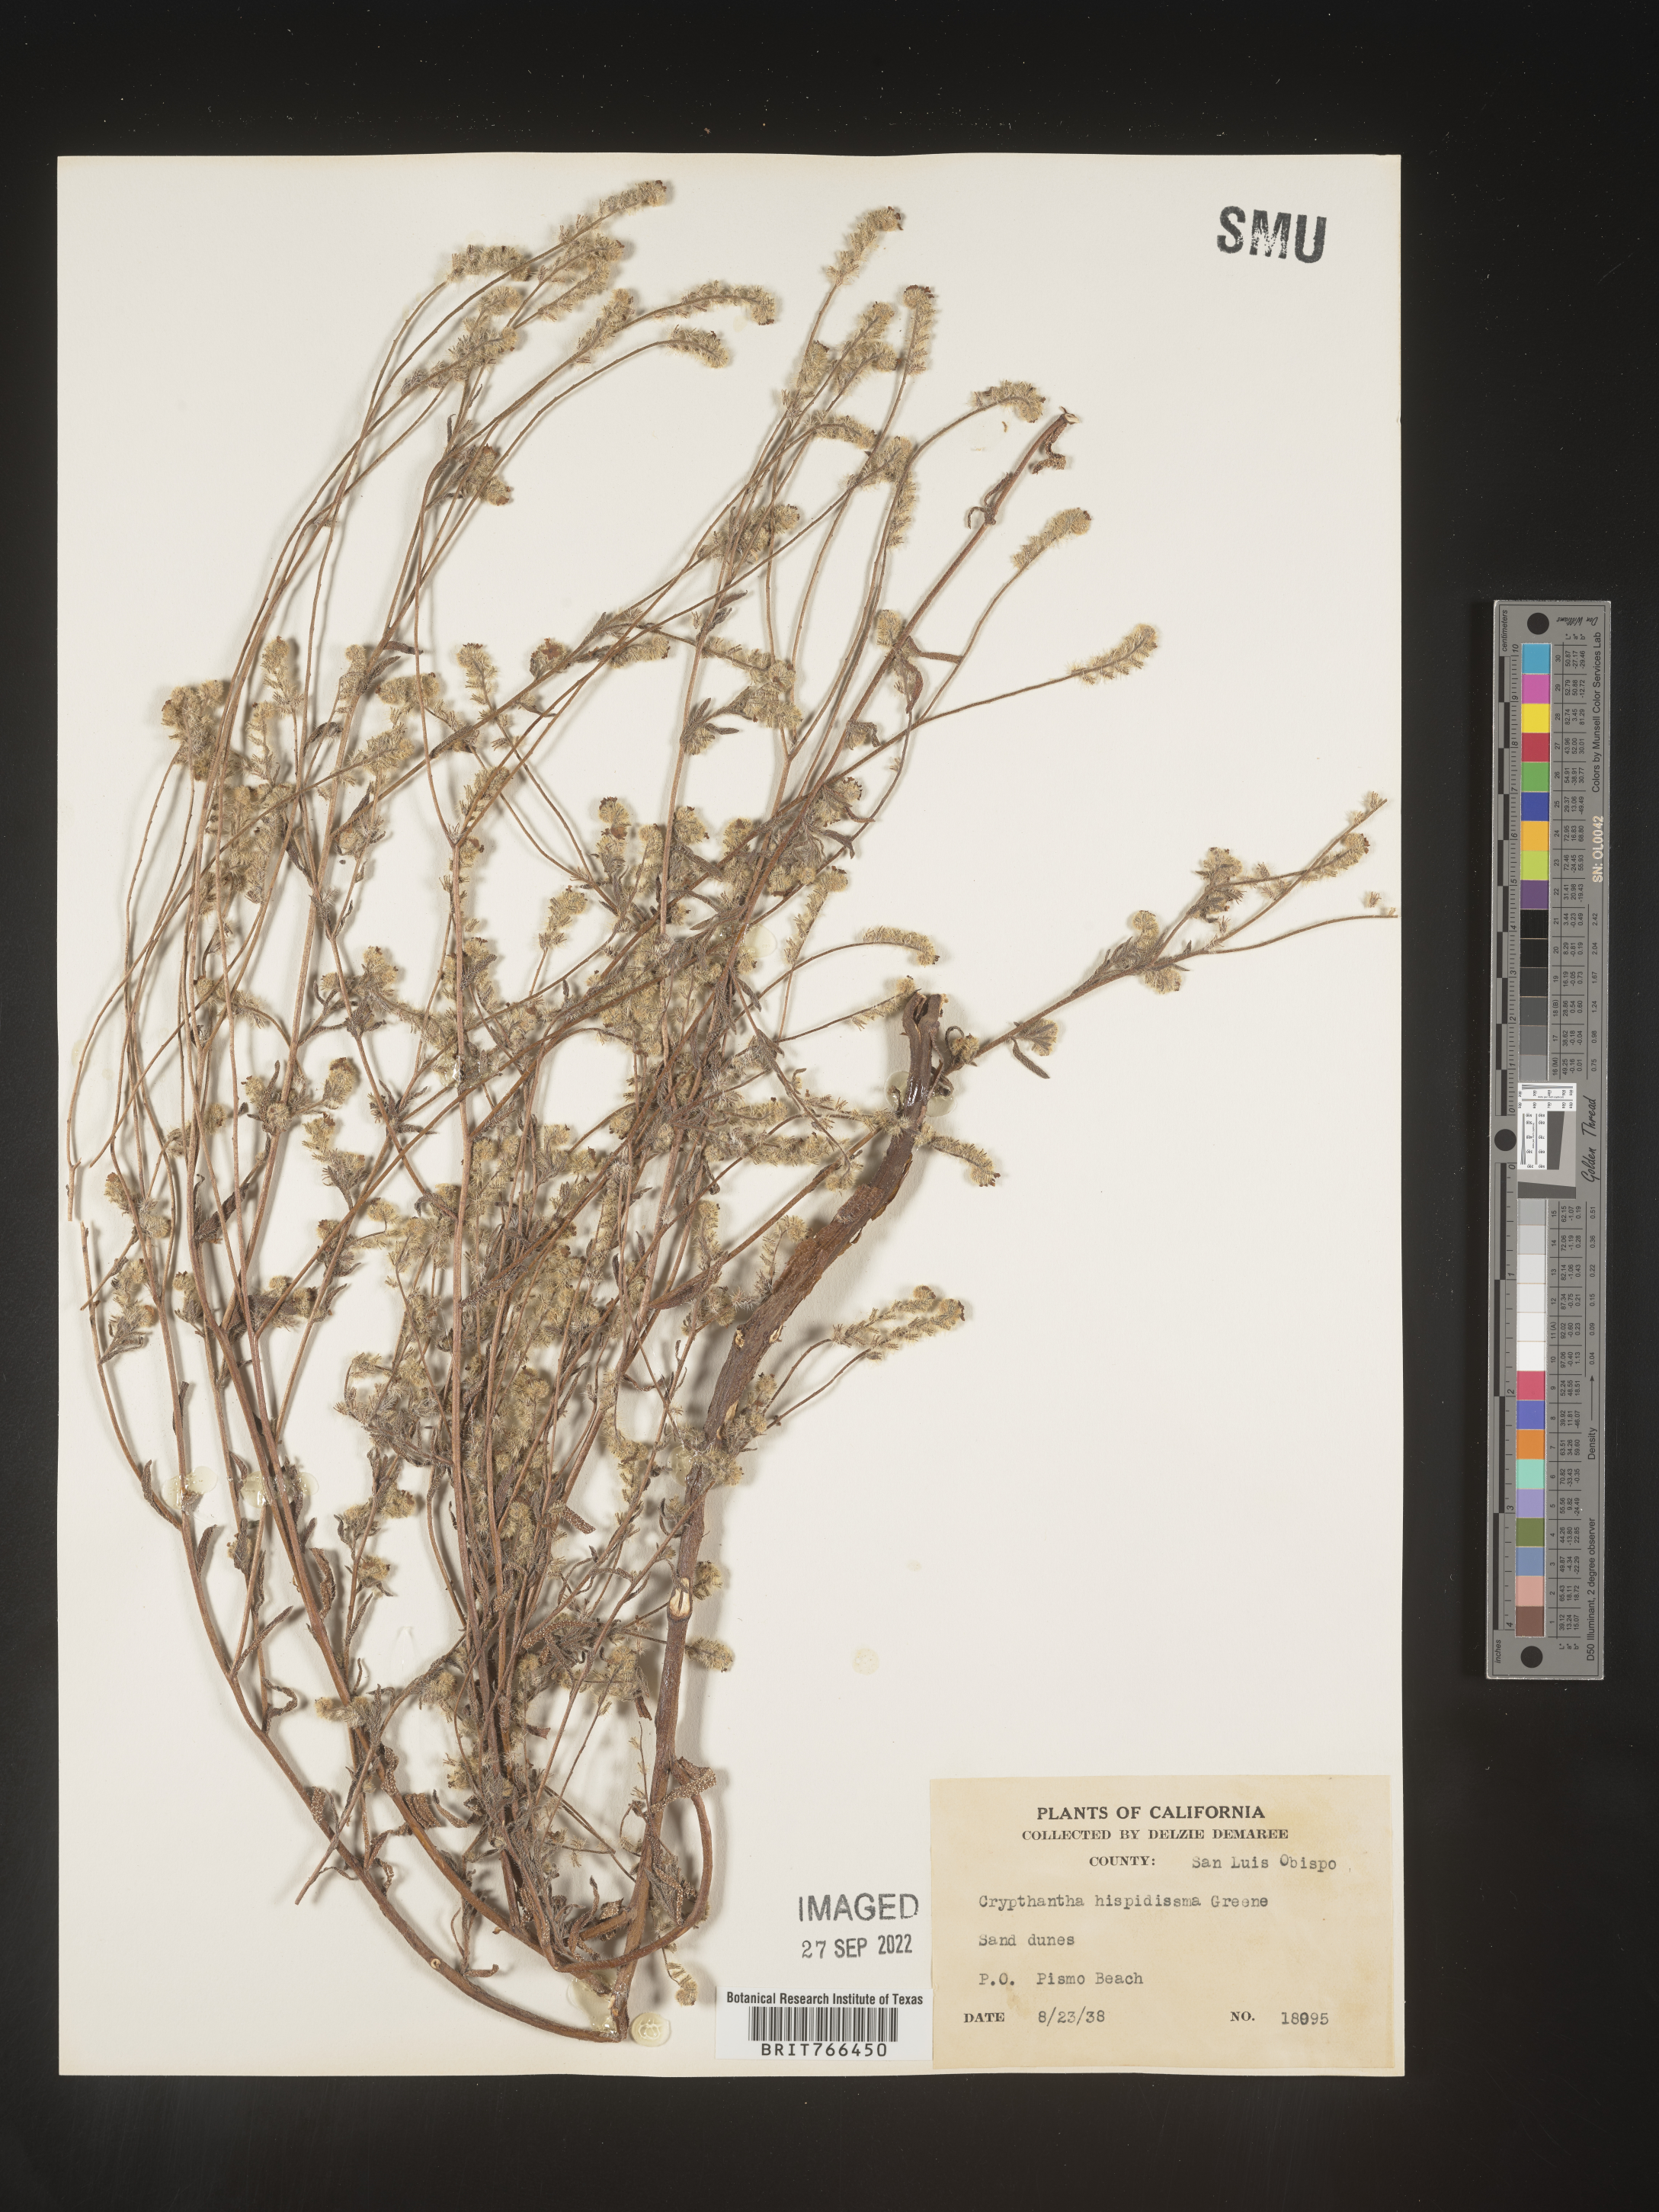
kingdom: Plantae
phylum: Tracheophyta
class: Magnoliopsida
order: Boraginales
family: Boraginaceae
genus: Cryptantha
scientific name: Cryptantha
